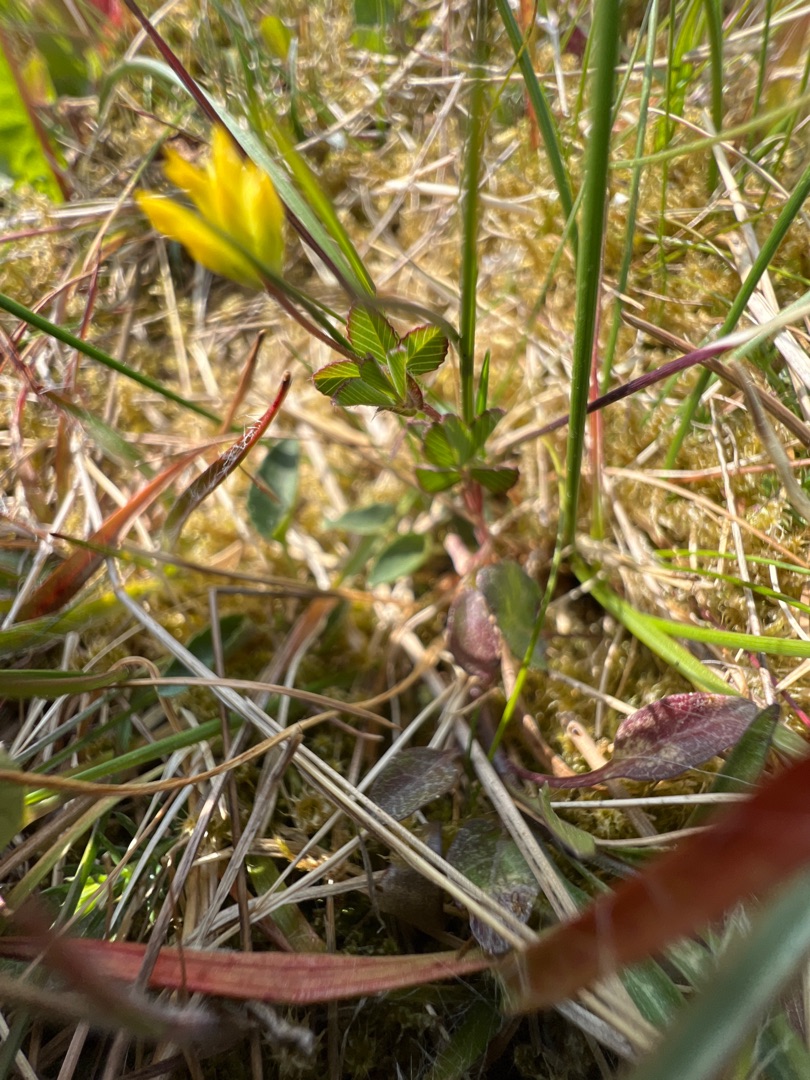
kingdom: Plantae
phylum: Tracheophyta
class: Magnoliopsida
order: Fabales
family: Fabaceae
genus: Trifolium
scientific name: Trifolium dubium
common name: Fin kløver
